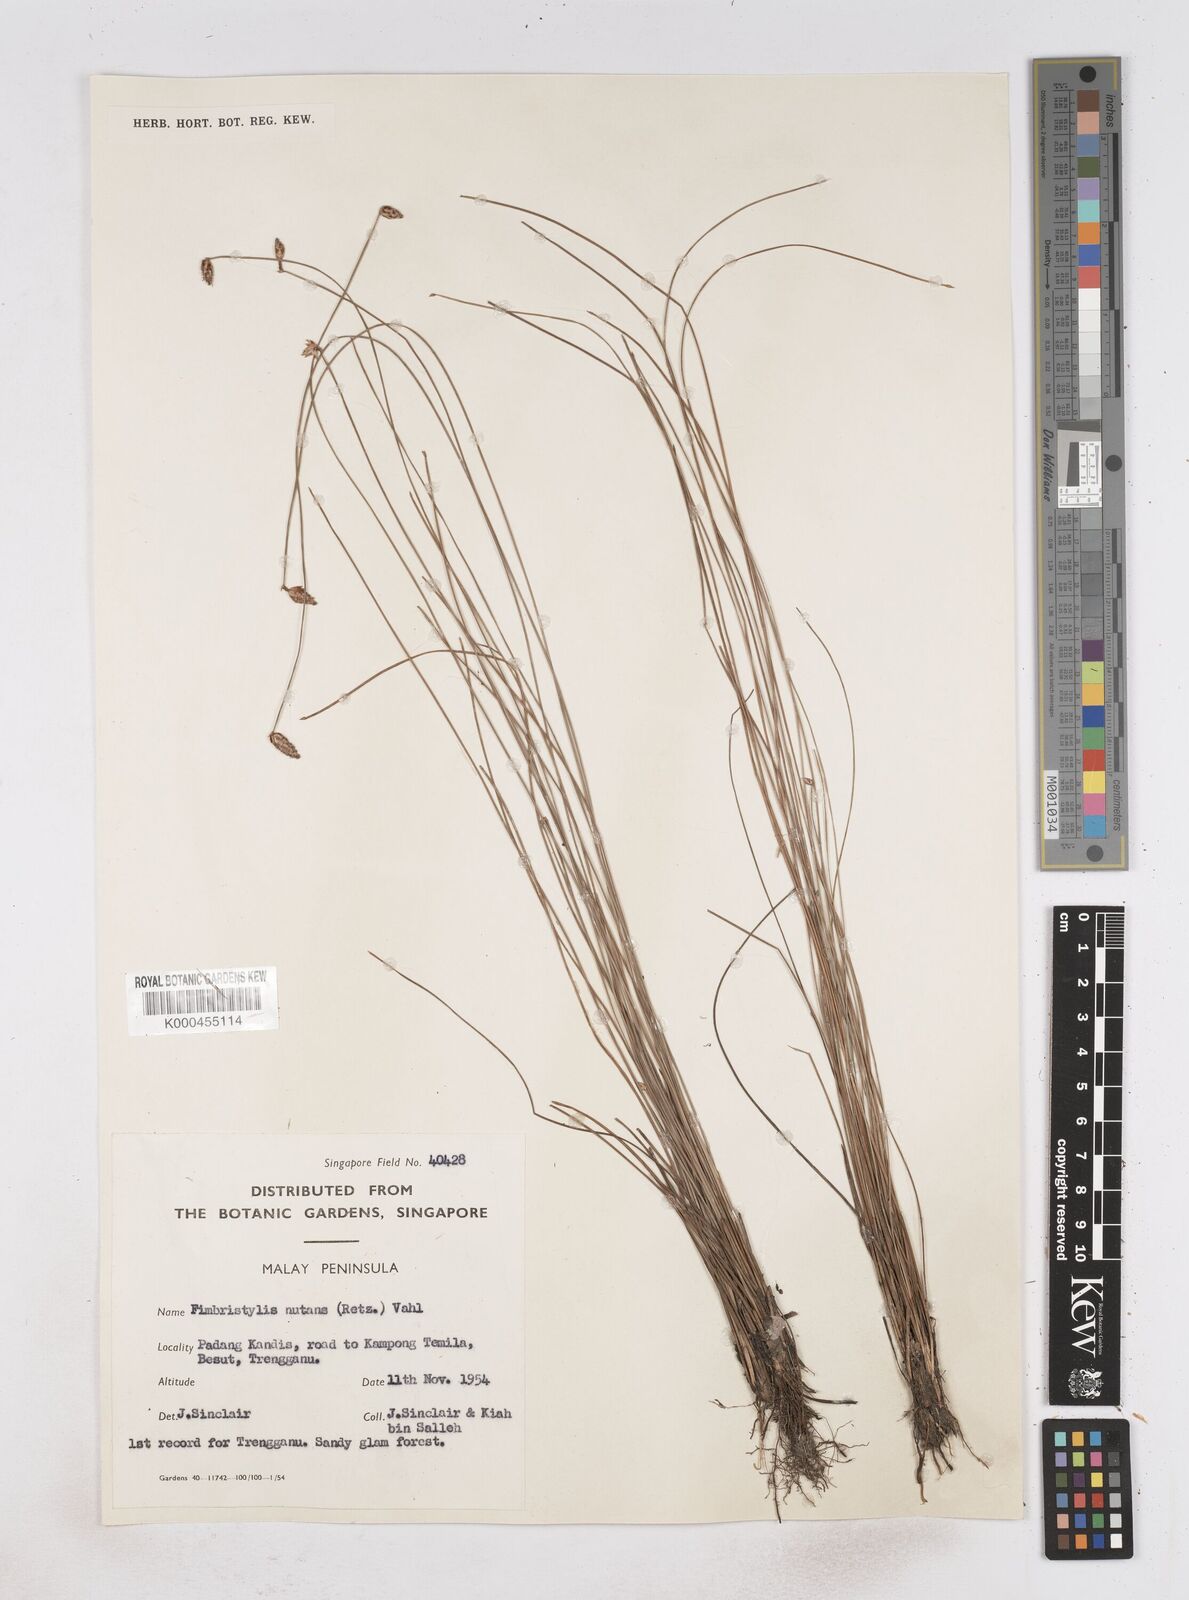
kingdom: Plantae
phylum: Tracheophyta
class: Liliopsida
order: Poales
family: Cyperaceae
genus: Fimbristylis
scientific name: Fimbristylis nutans
